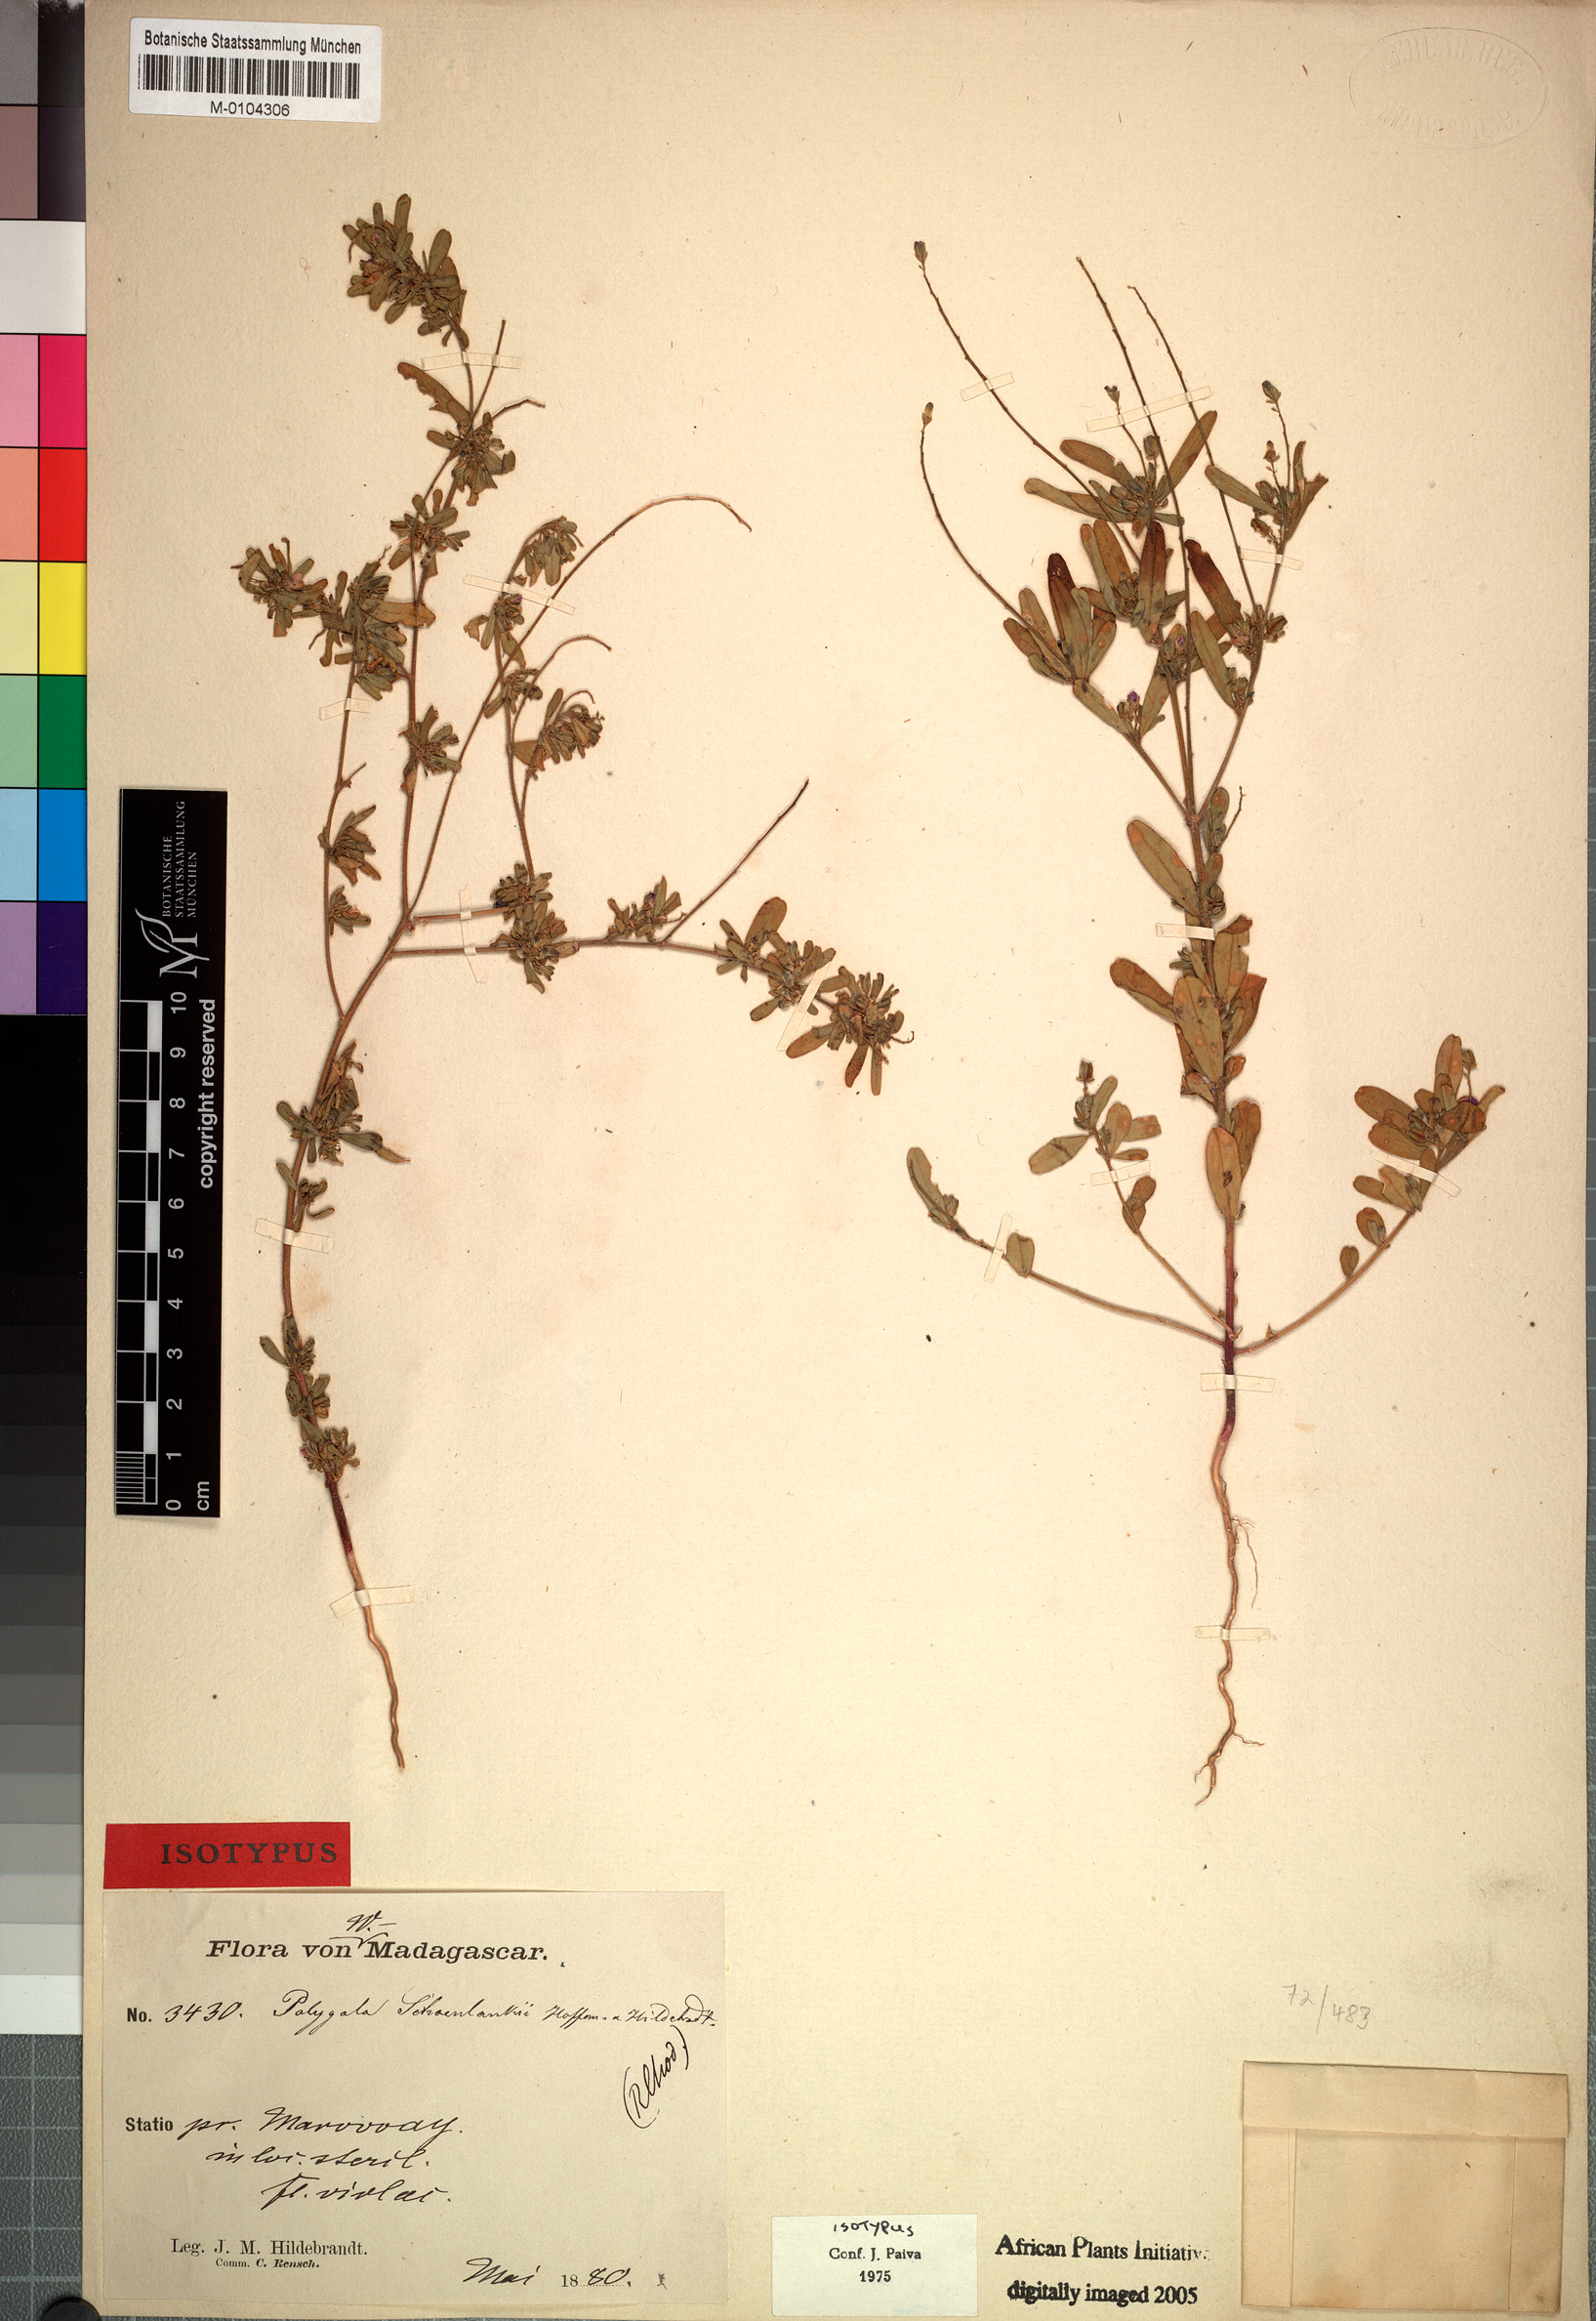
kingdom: Plantae
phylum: Tracheophyta
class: Magnoliopsida
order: Fabales
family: Polygalaceae
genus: Polygala
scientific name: Polygala schoenlankii
